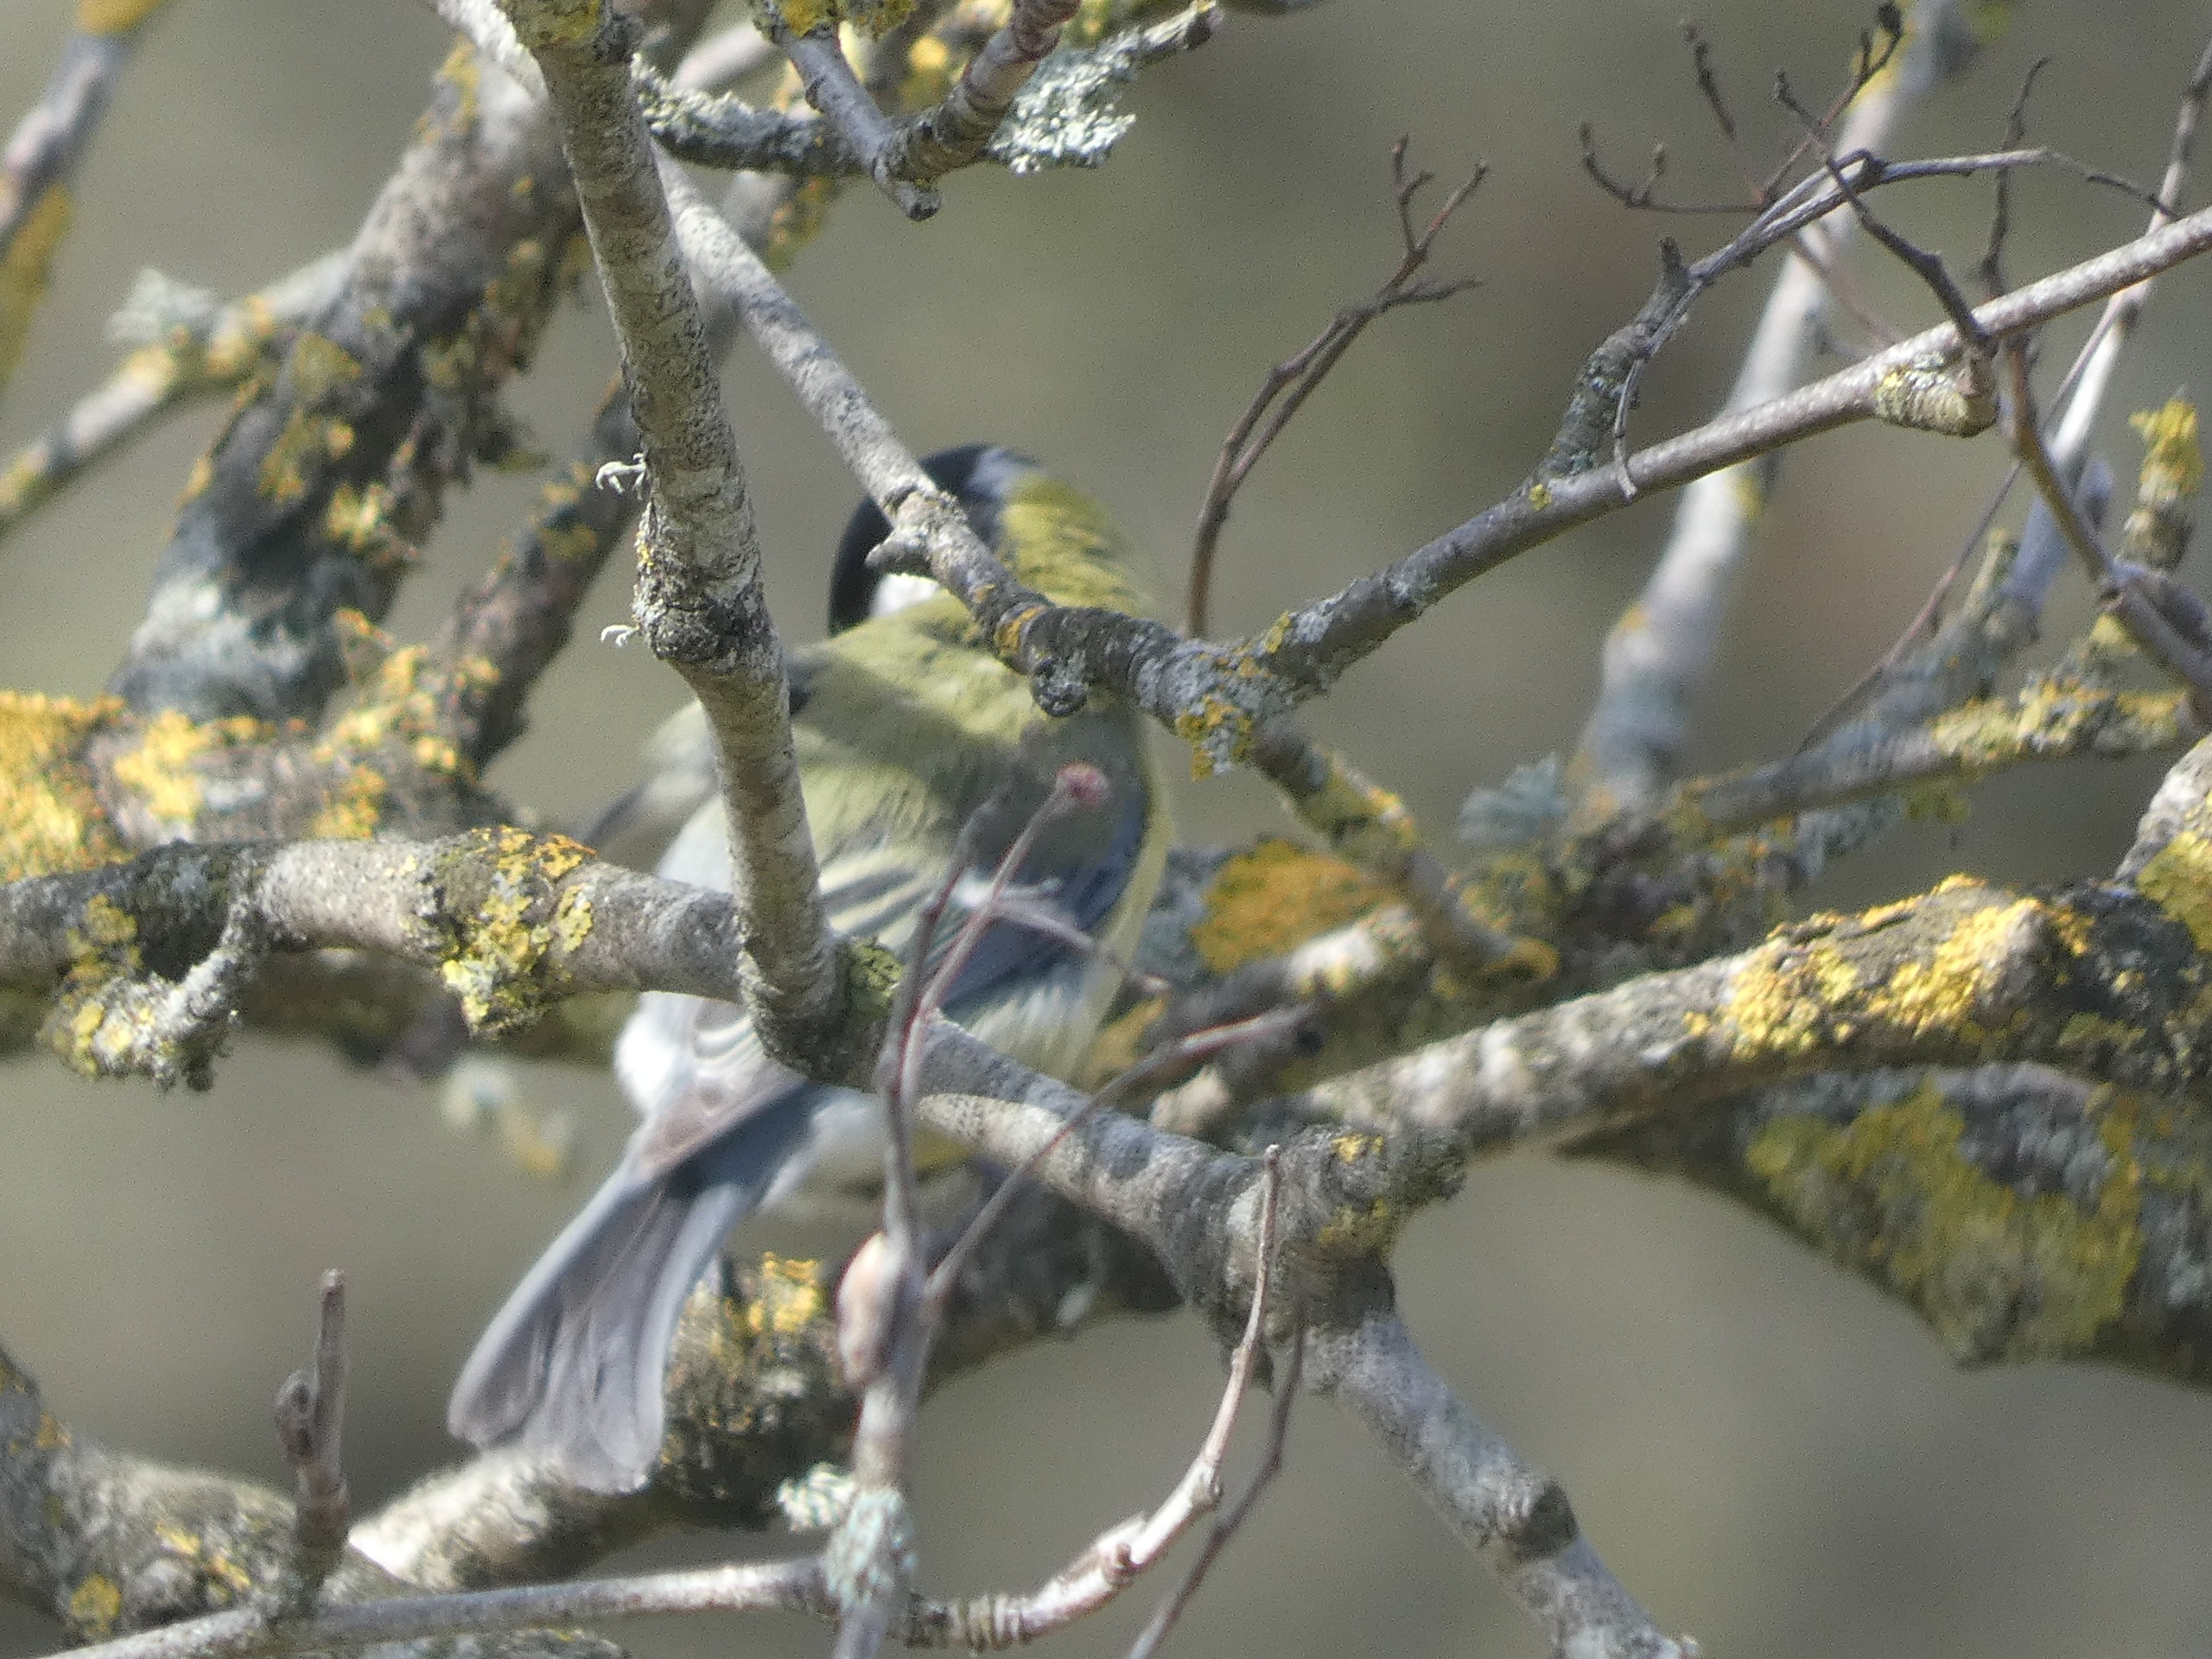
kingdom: Animalia
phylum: Chordata
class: Aves
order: Passeriformes
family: Paridae
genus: Parus
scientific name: Parus major
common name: Musvit
